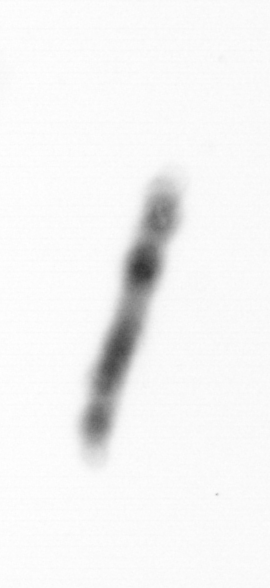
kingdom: Chromista
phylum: Ochrophyta
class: Bacillariophyceae
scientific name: Bacillariophyceae
